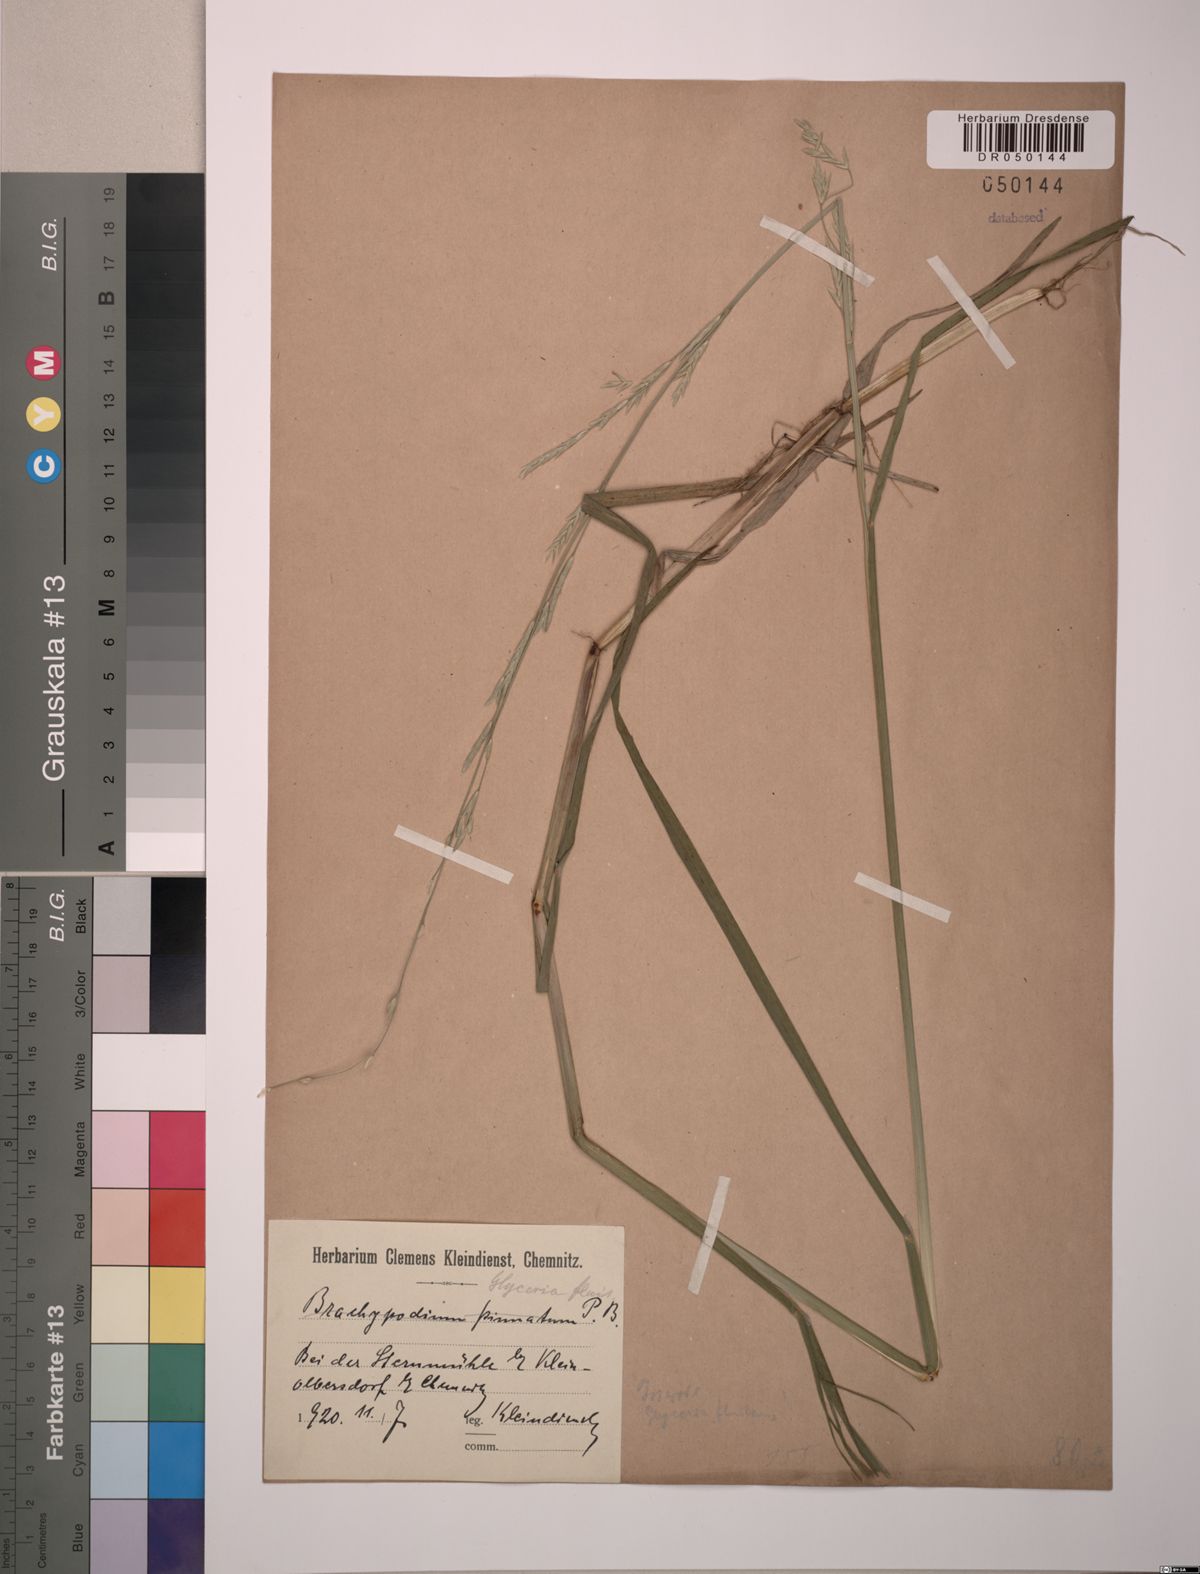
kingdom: Plantae
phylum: Tracheophyta
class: Liliopsida
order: Poales
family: Poaceae
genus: Glyceria
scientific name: Glyceria fluitans
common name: Floating sweet-grass
